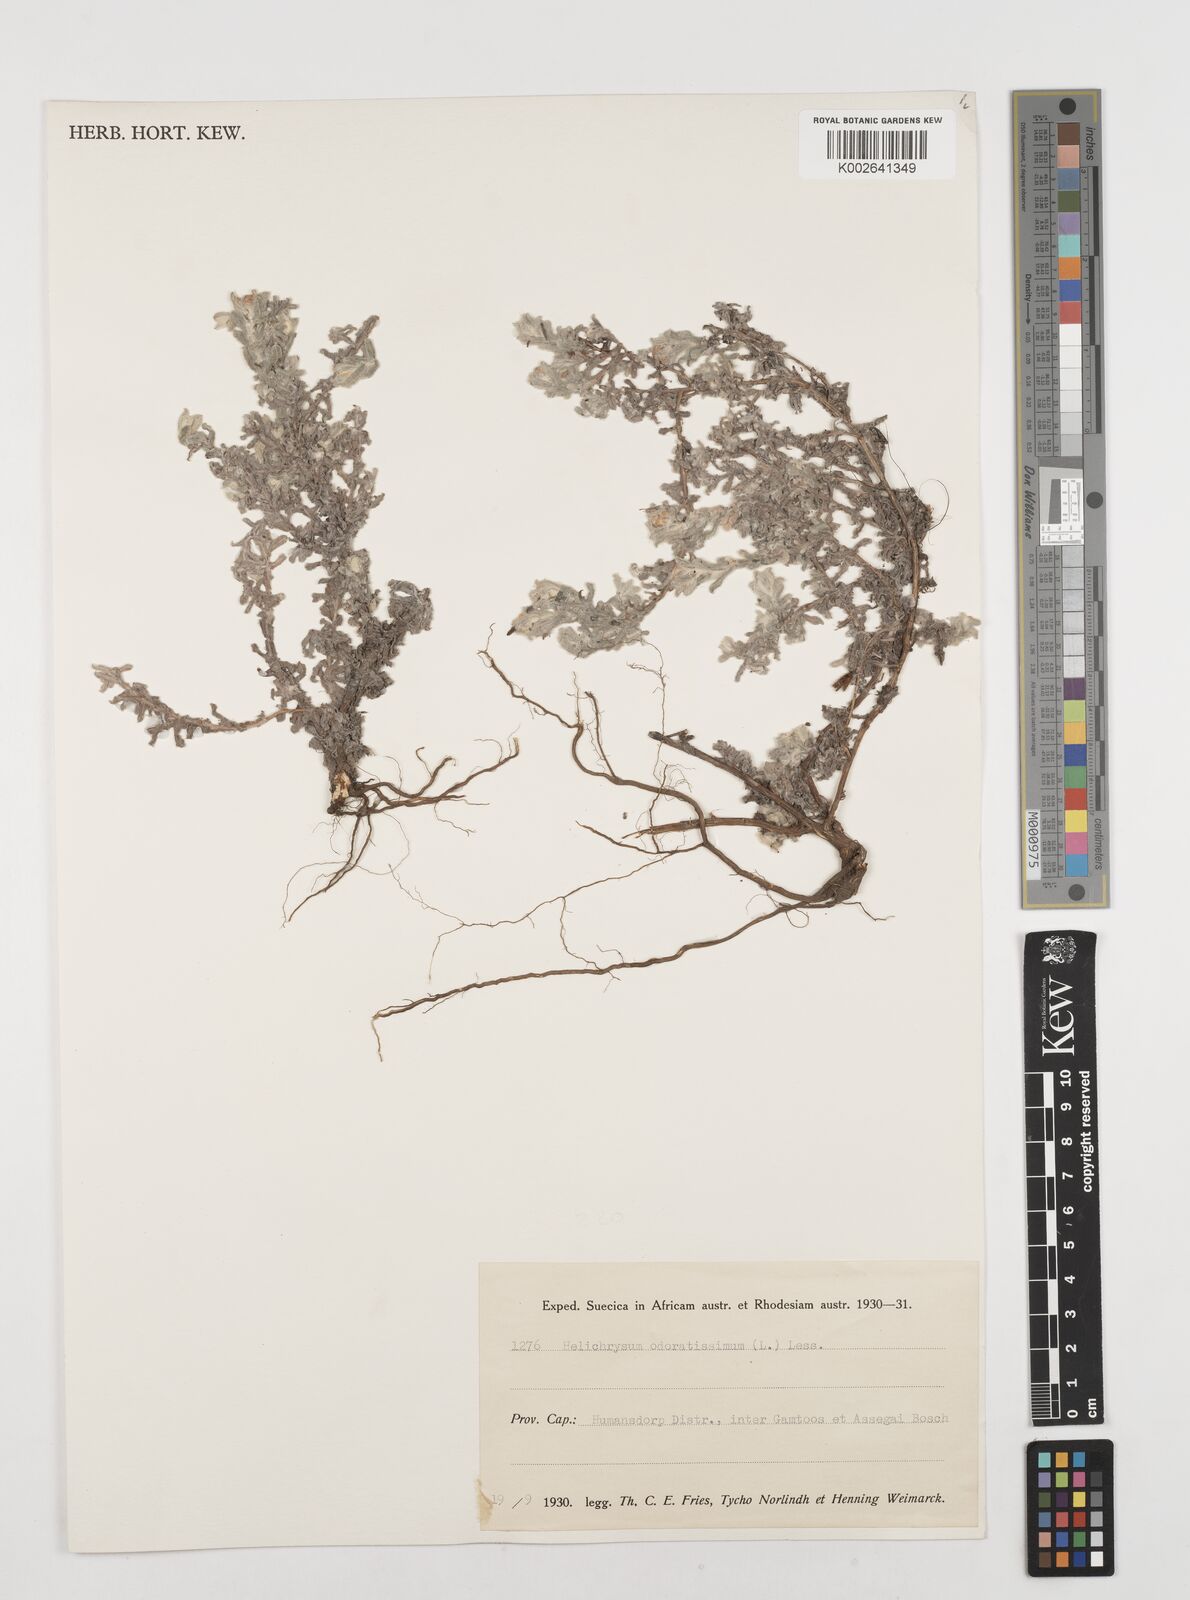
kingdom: Plantae
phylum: Tracheophyta
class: Magnoliopsida
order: Asterales
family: Asteraceae
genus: Helichrysum
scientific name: Helichrysum odoratissimum
